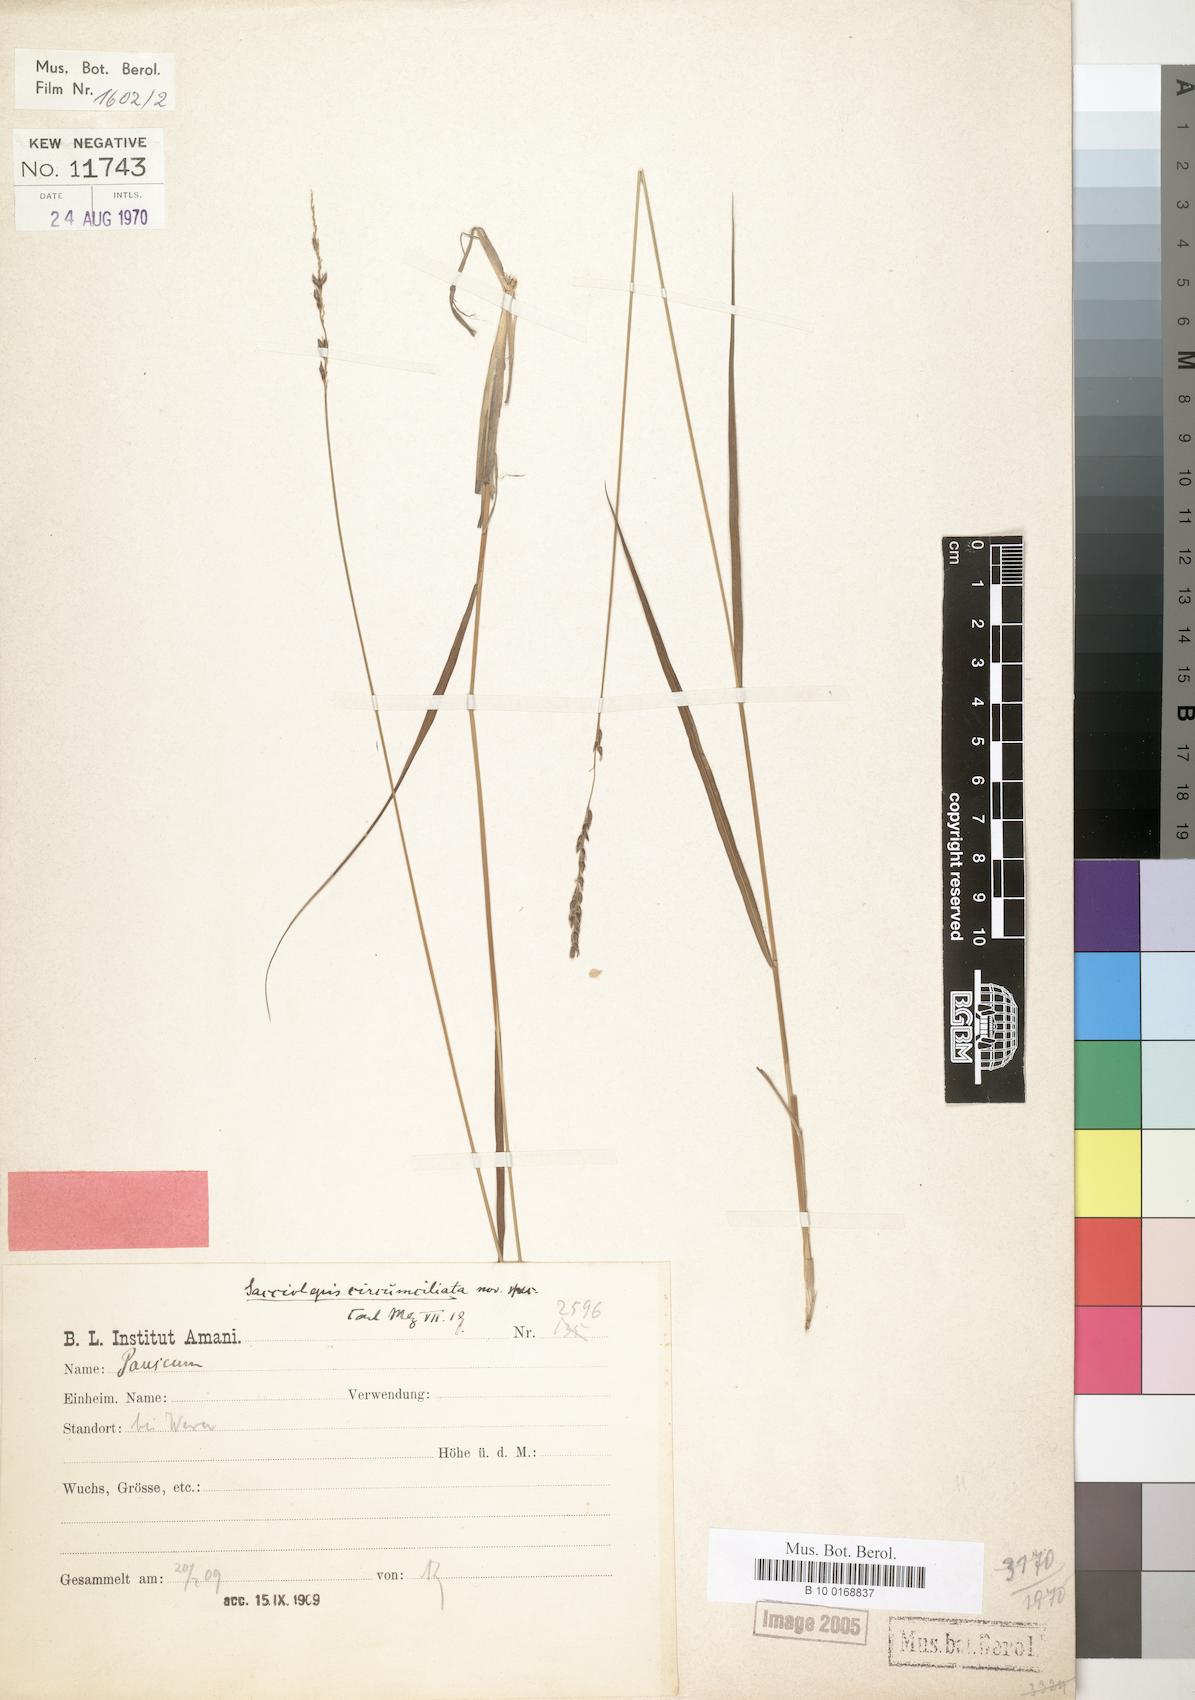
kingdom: Plantae
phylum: Tracheophyta
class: Liliopsida
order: Poales
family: Poaceae
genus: Sacciolepis
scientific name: Sacciolepis transbarbata
